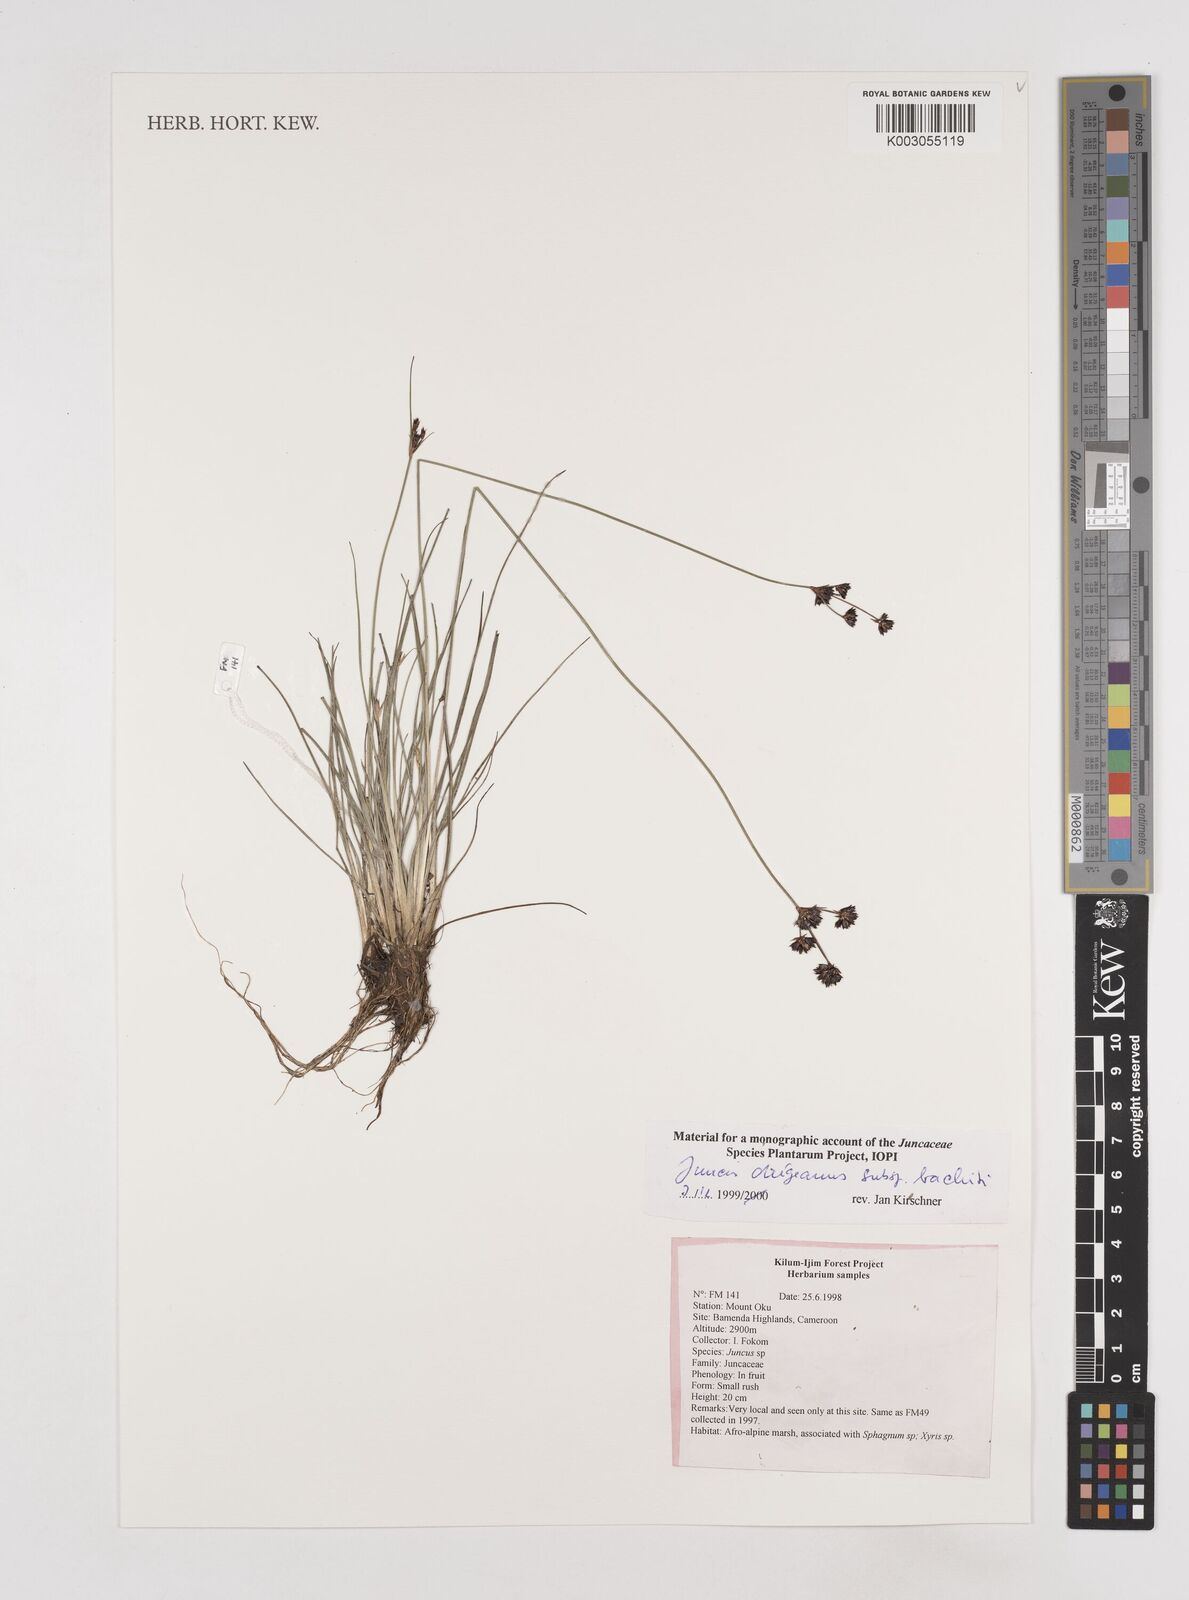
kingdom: Plantae
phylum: Tracheophyta
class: Liliopsida
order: Poales
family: Juncaceae
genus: Juncus
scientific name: Juncus dregeanus
